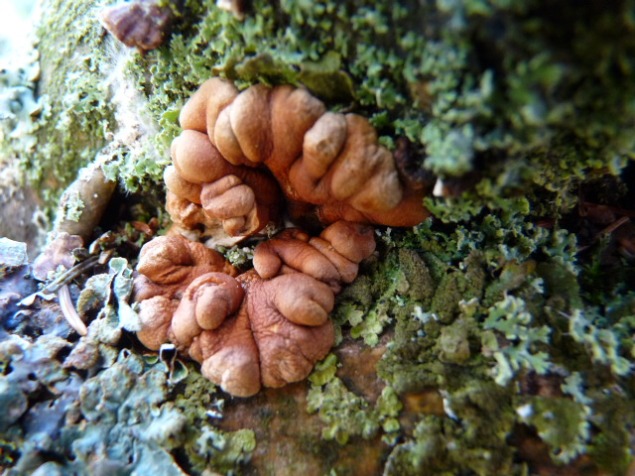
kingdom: Fungi
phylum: Ascomycota
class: Sordariomycetes
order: Hypocreales
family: Hypocreaceae
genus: Hypocreopsis
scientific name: Hypocreopsis lichenoides
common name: pilfinger
